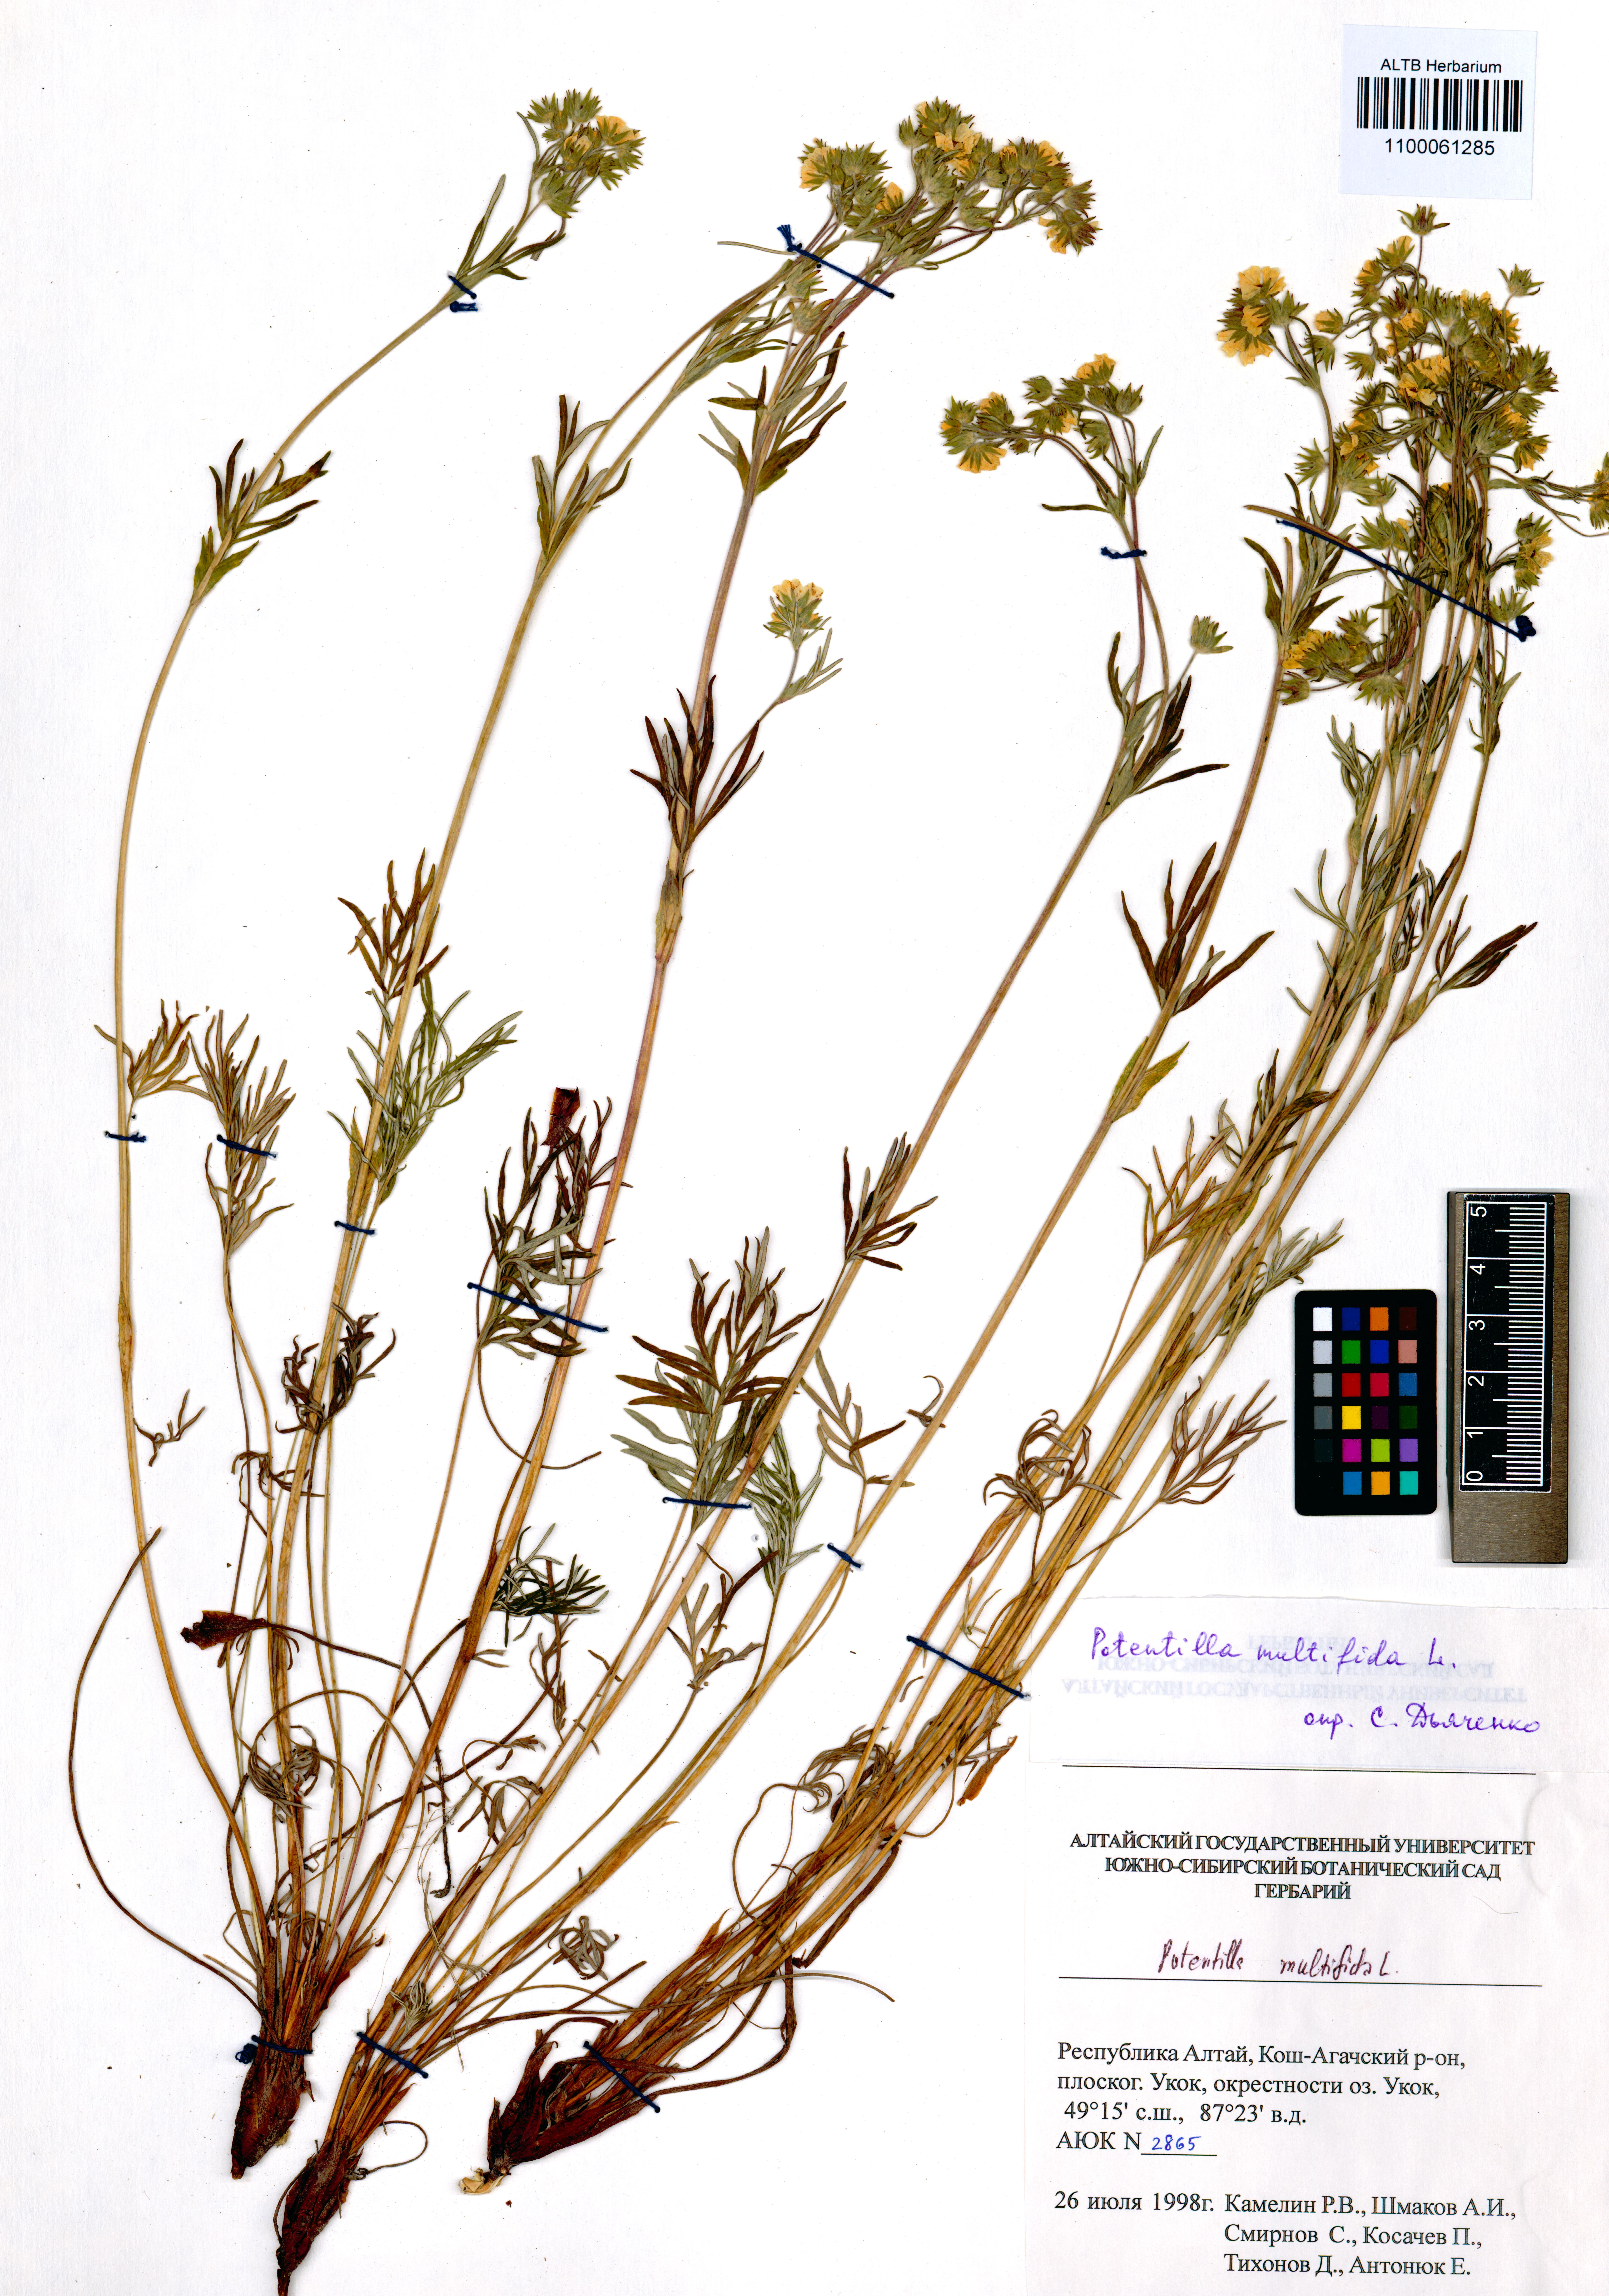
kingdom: Plantae
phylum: Tracheophyta
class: Magnoliopsida
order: Rosales
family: Rosaceae
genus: Potentilla
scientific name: Potentilla multifida
